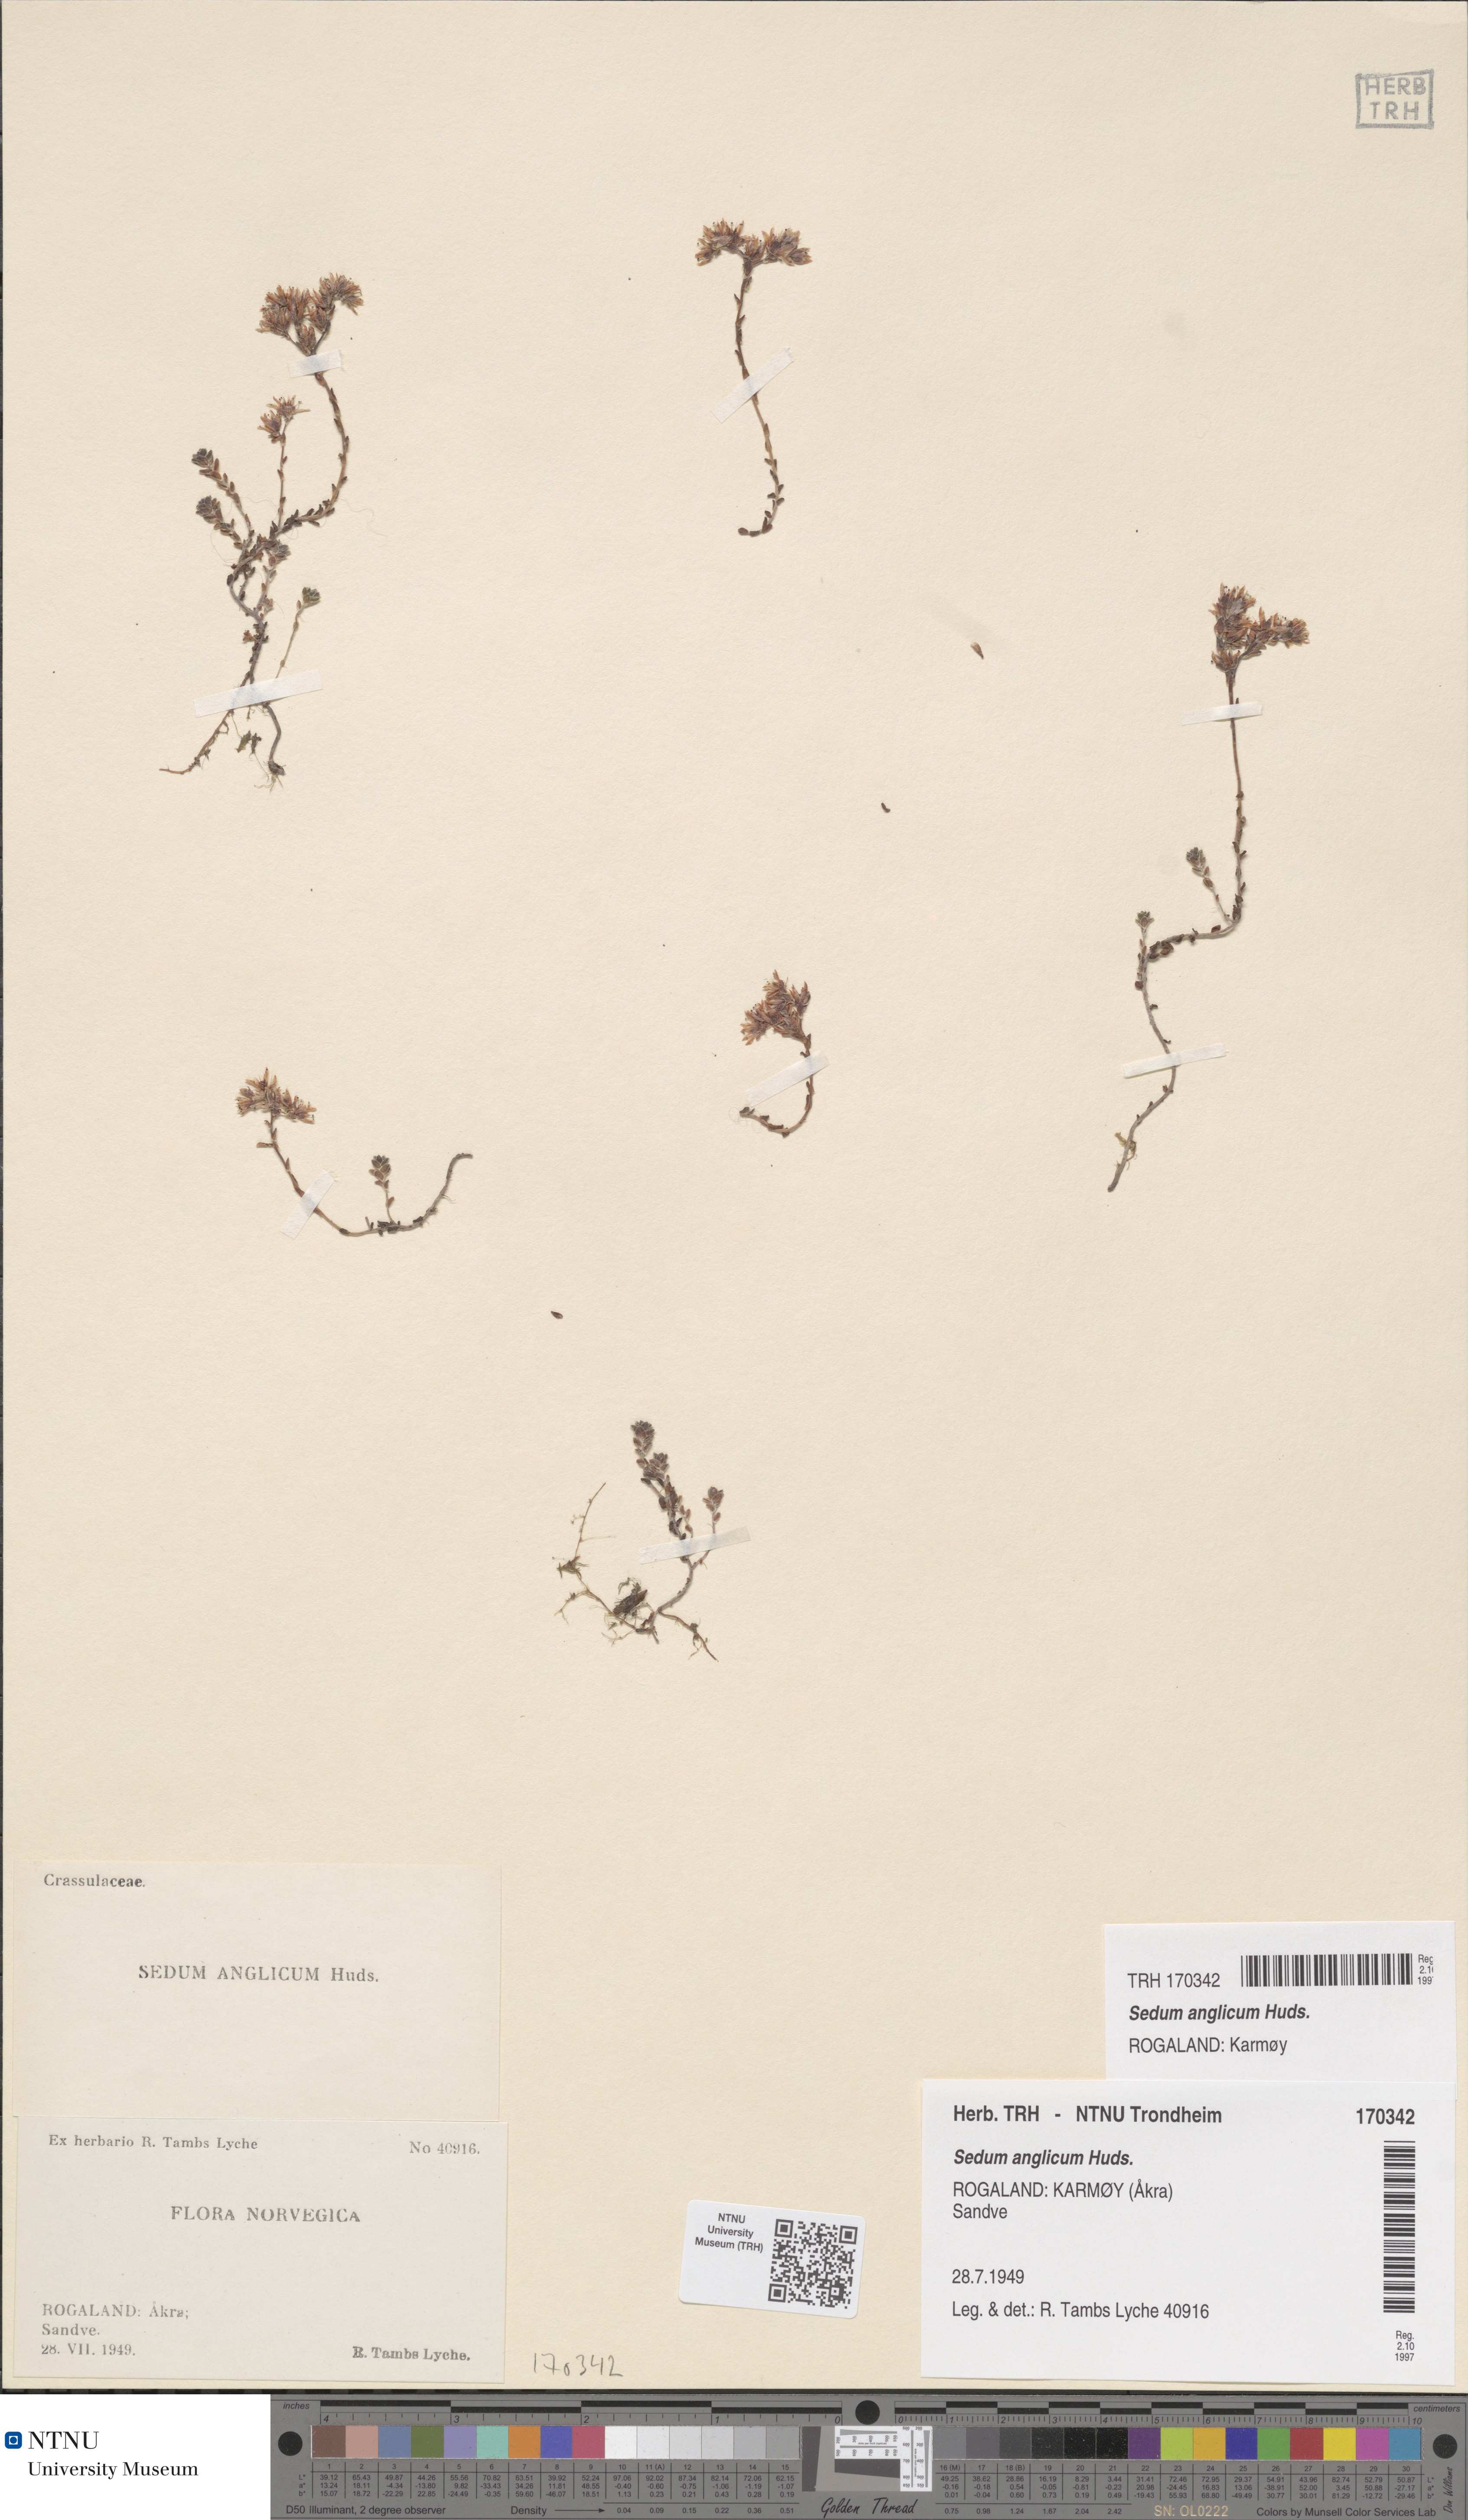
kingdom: Plantae
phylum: Tracheophyta
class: Magnoliopsida
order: Saxifragales
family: Crassulaceae
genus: Sedum
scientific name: Sedum anglicum
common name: English stonecrop
